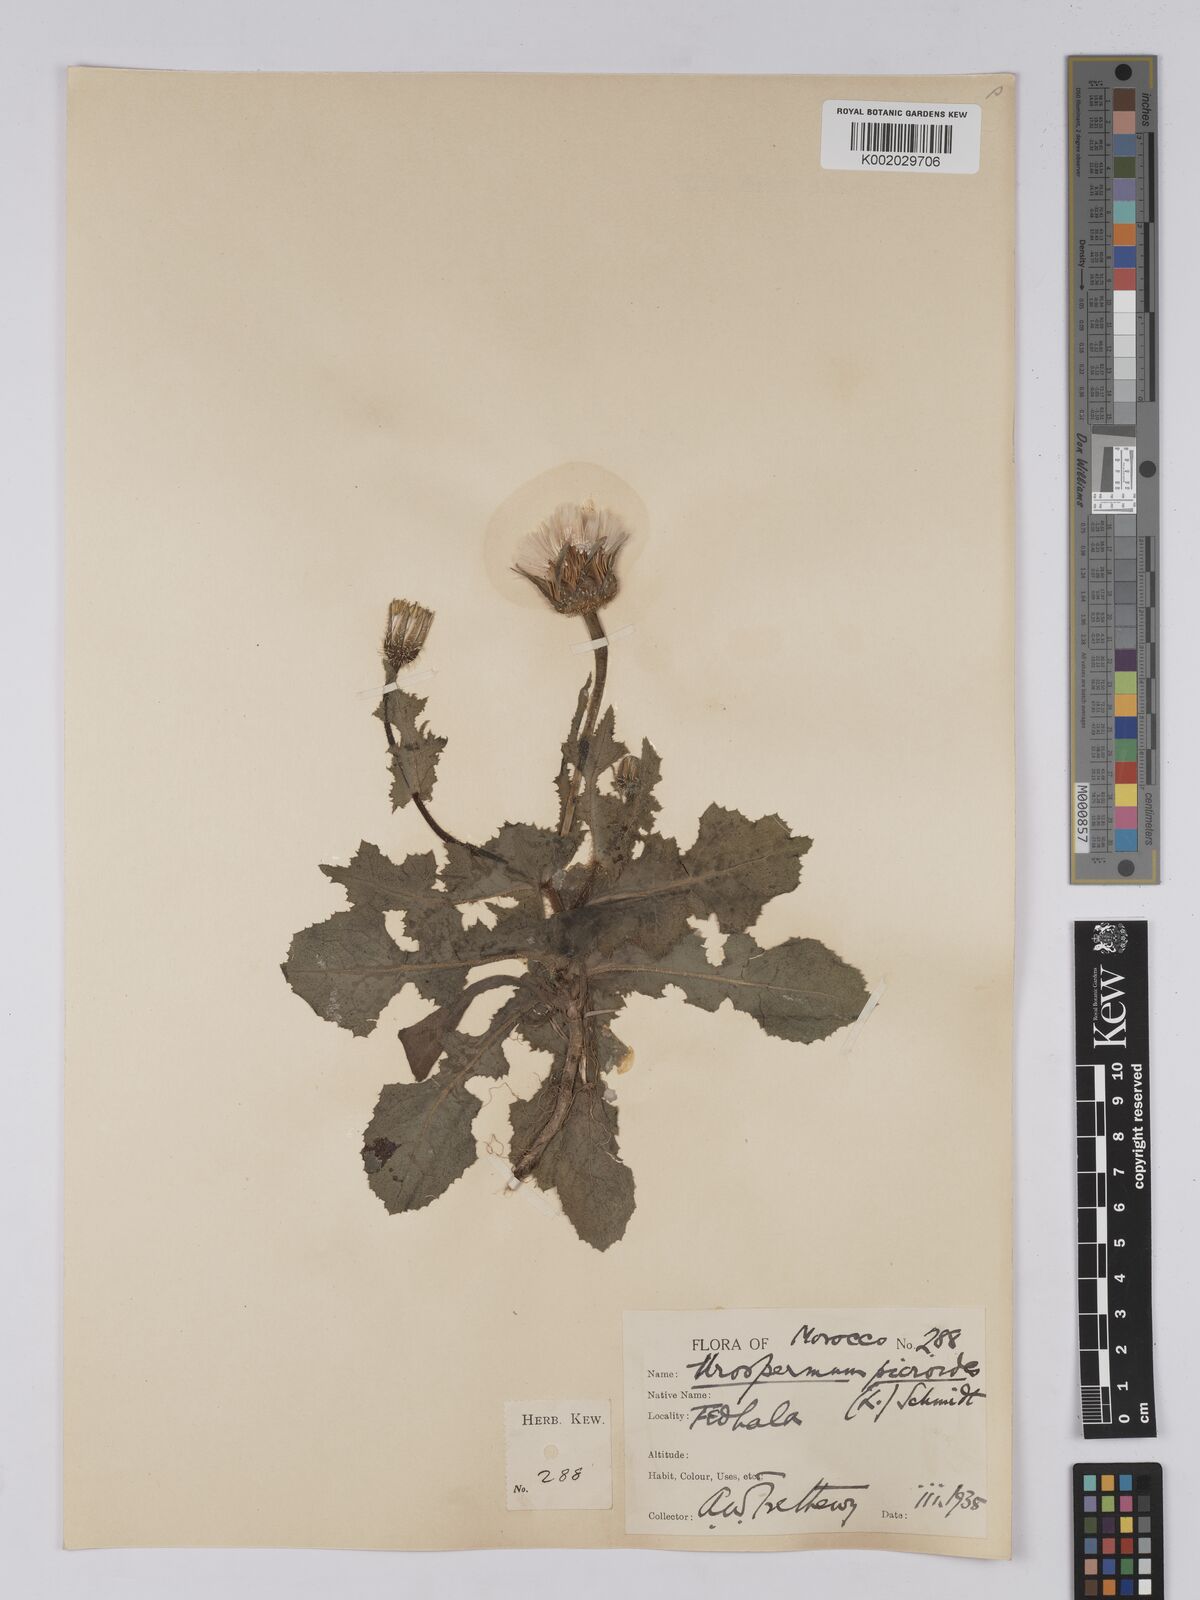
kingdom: Plantae
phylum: Tracheophyta
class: Magnoliopsida
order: Asterales
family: Asteraceae
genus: Urospermum
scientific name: Urospermum picroides
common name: False hawkbit
